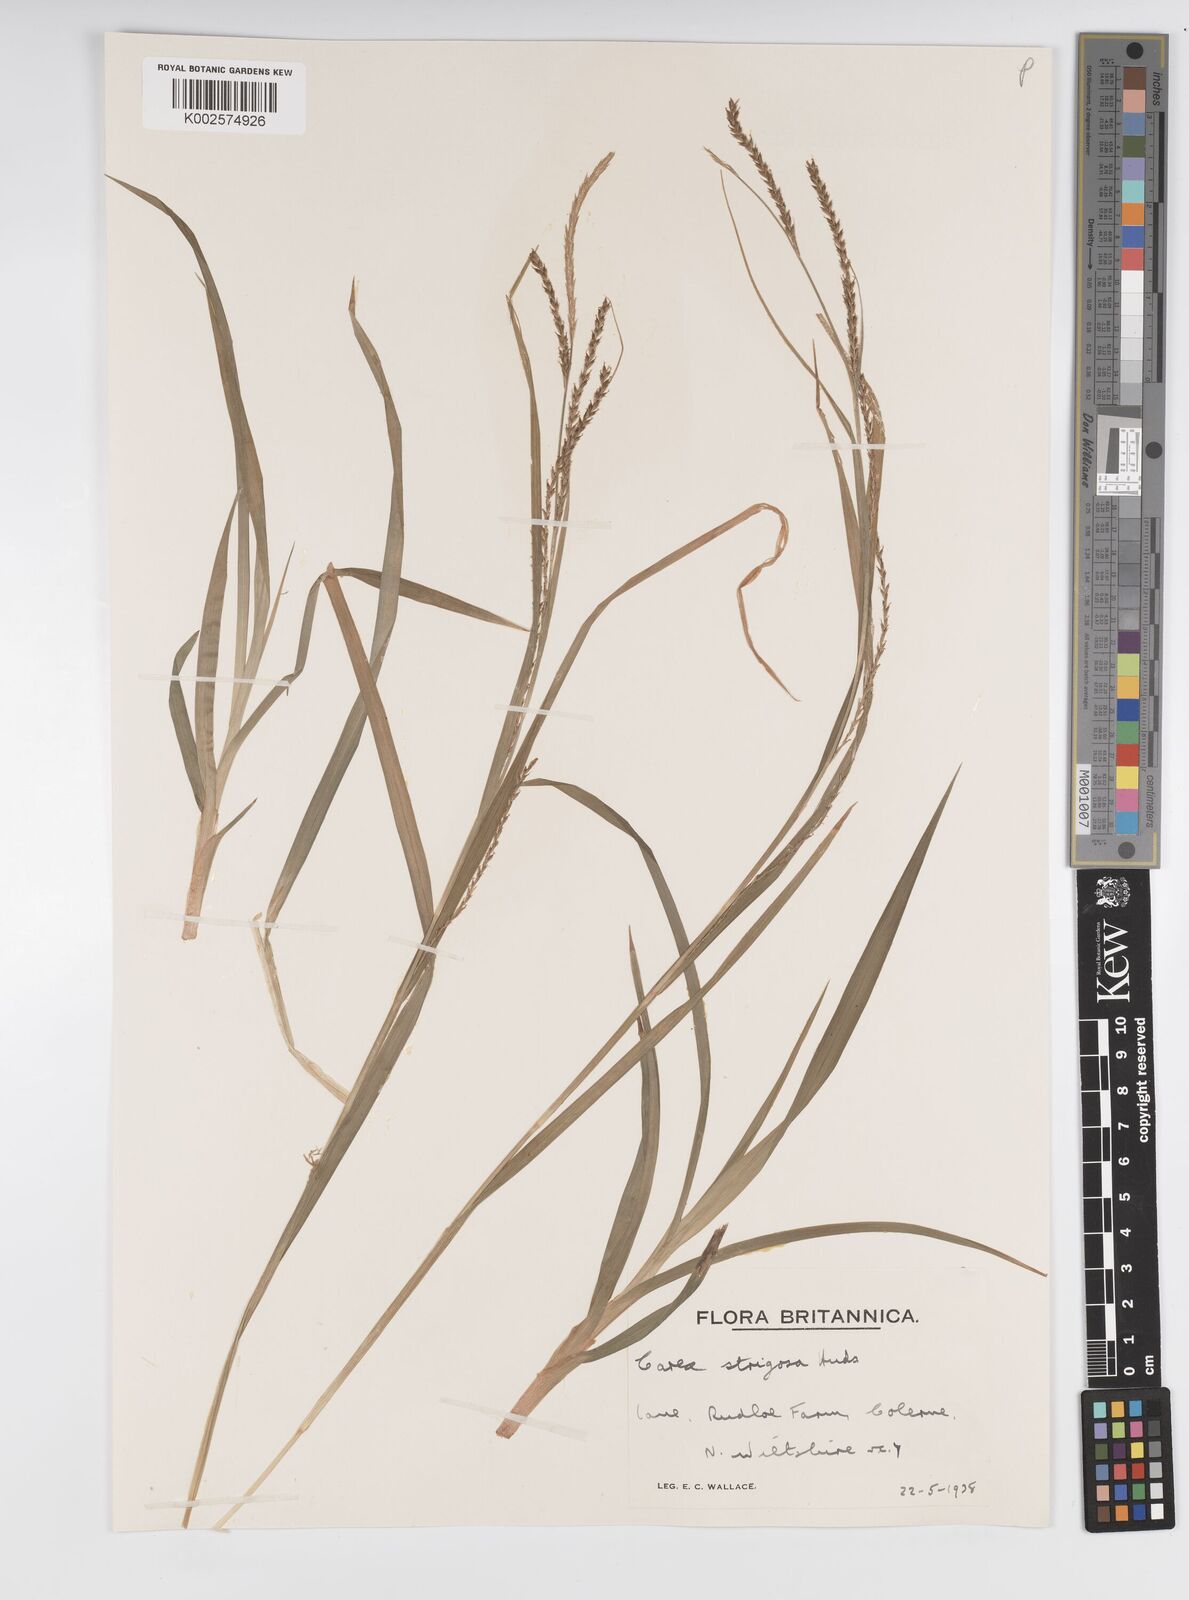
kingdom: Plantae
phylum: Tracheophyta
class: Liliopsida
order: Poales
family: Cyperaceae
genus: Carex
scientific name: Carex strigosa
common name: Thin-spiked wood-sedge
